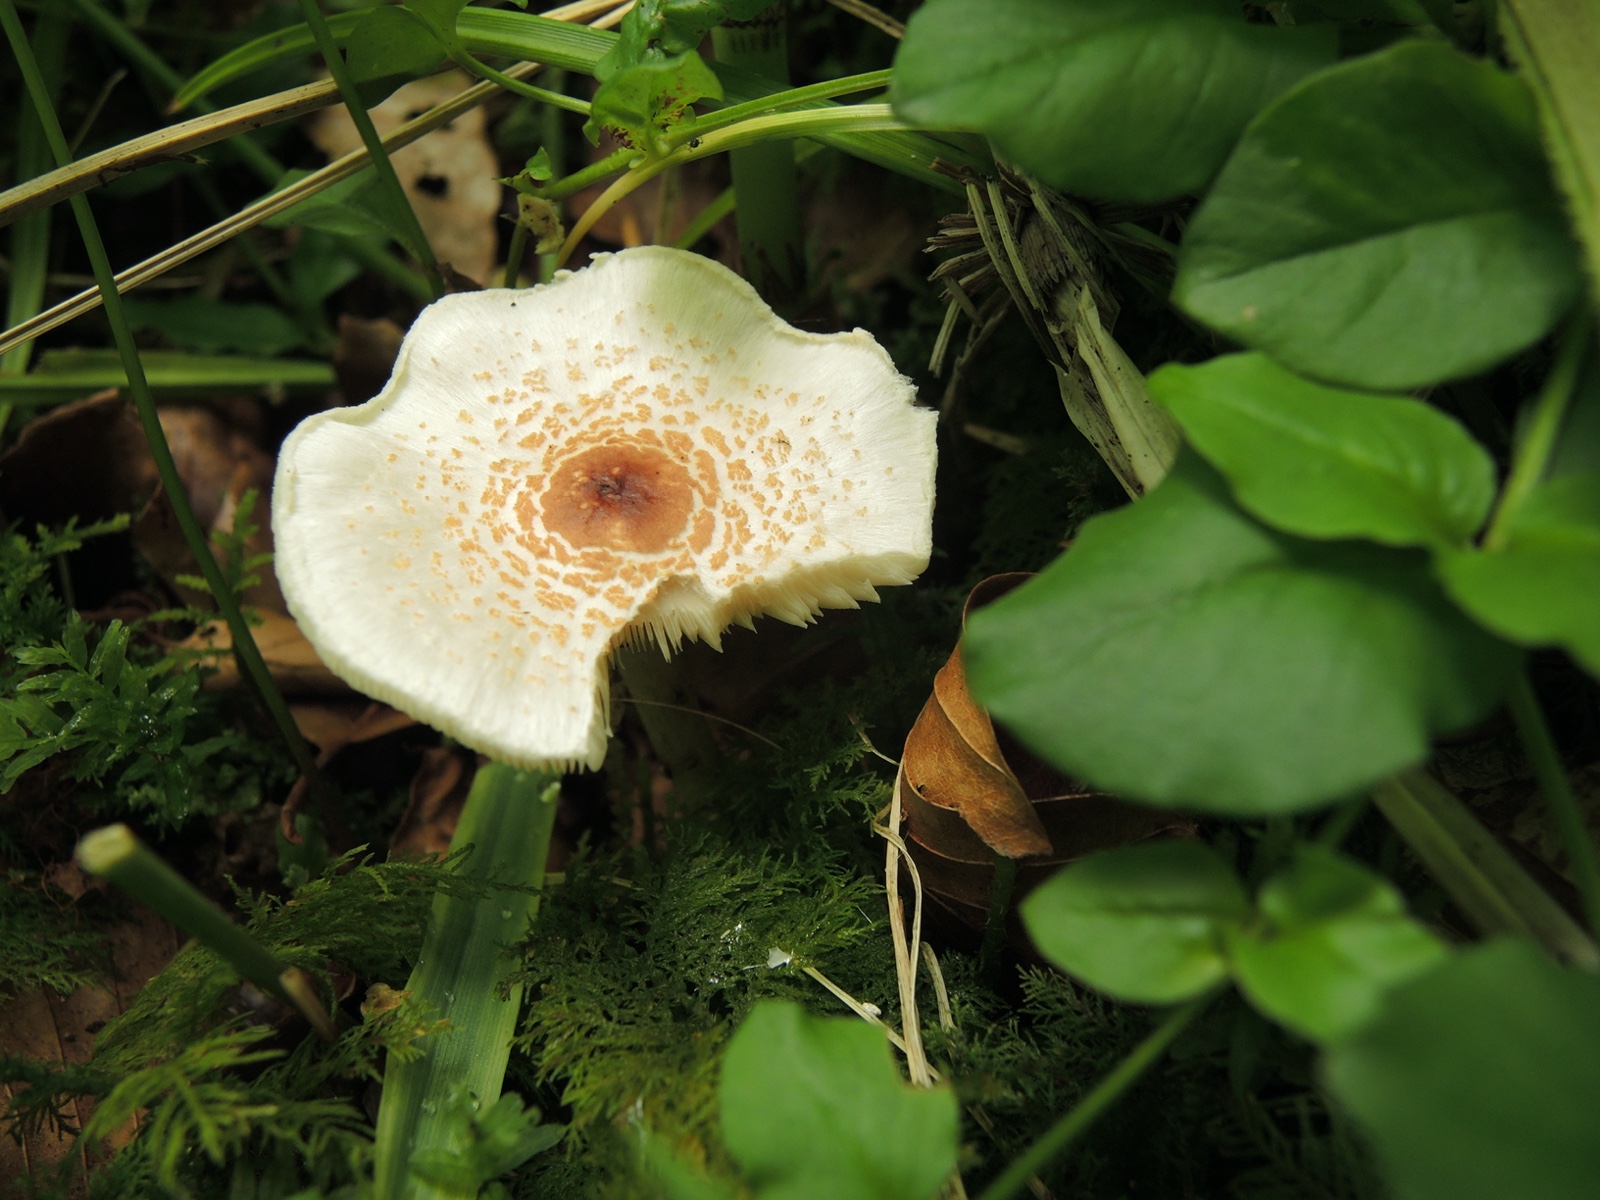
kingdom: Fungi
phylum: Basidiomycota
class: Agaricomycetes
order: Agaricales
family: Agaricaceae
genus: Lepiota
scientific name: Lepiota cristata
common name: stinkende parasolhat
